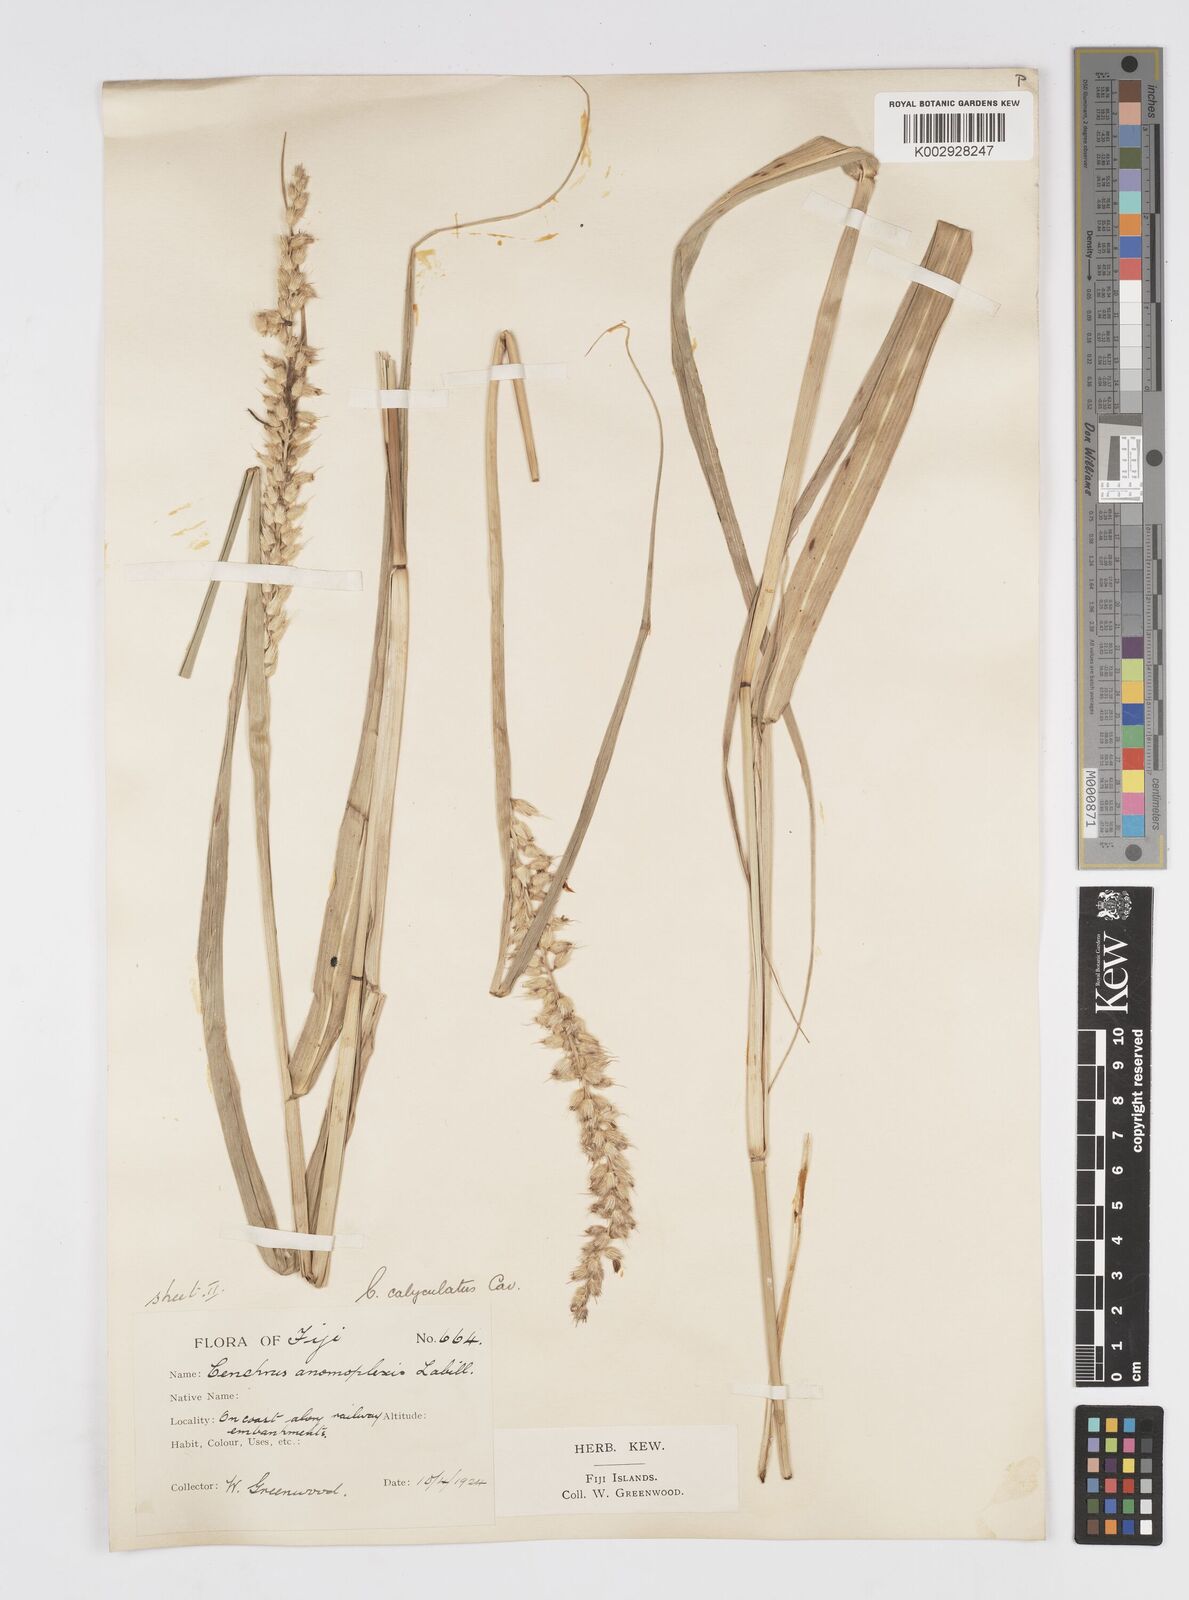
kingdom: Plantae
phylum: Tracheophyta
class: Liliopsida
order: Poales
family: Poaceae
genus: Cenchrus
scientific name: Cenchrus caliculatus
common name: Large bur grass
